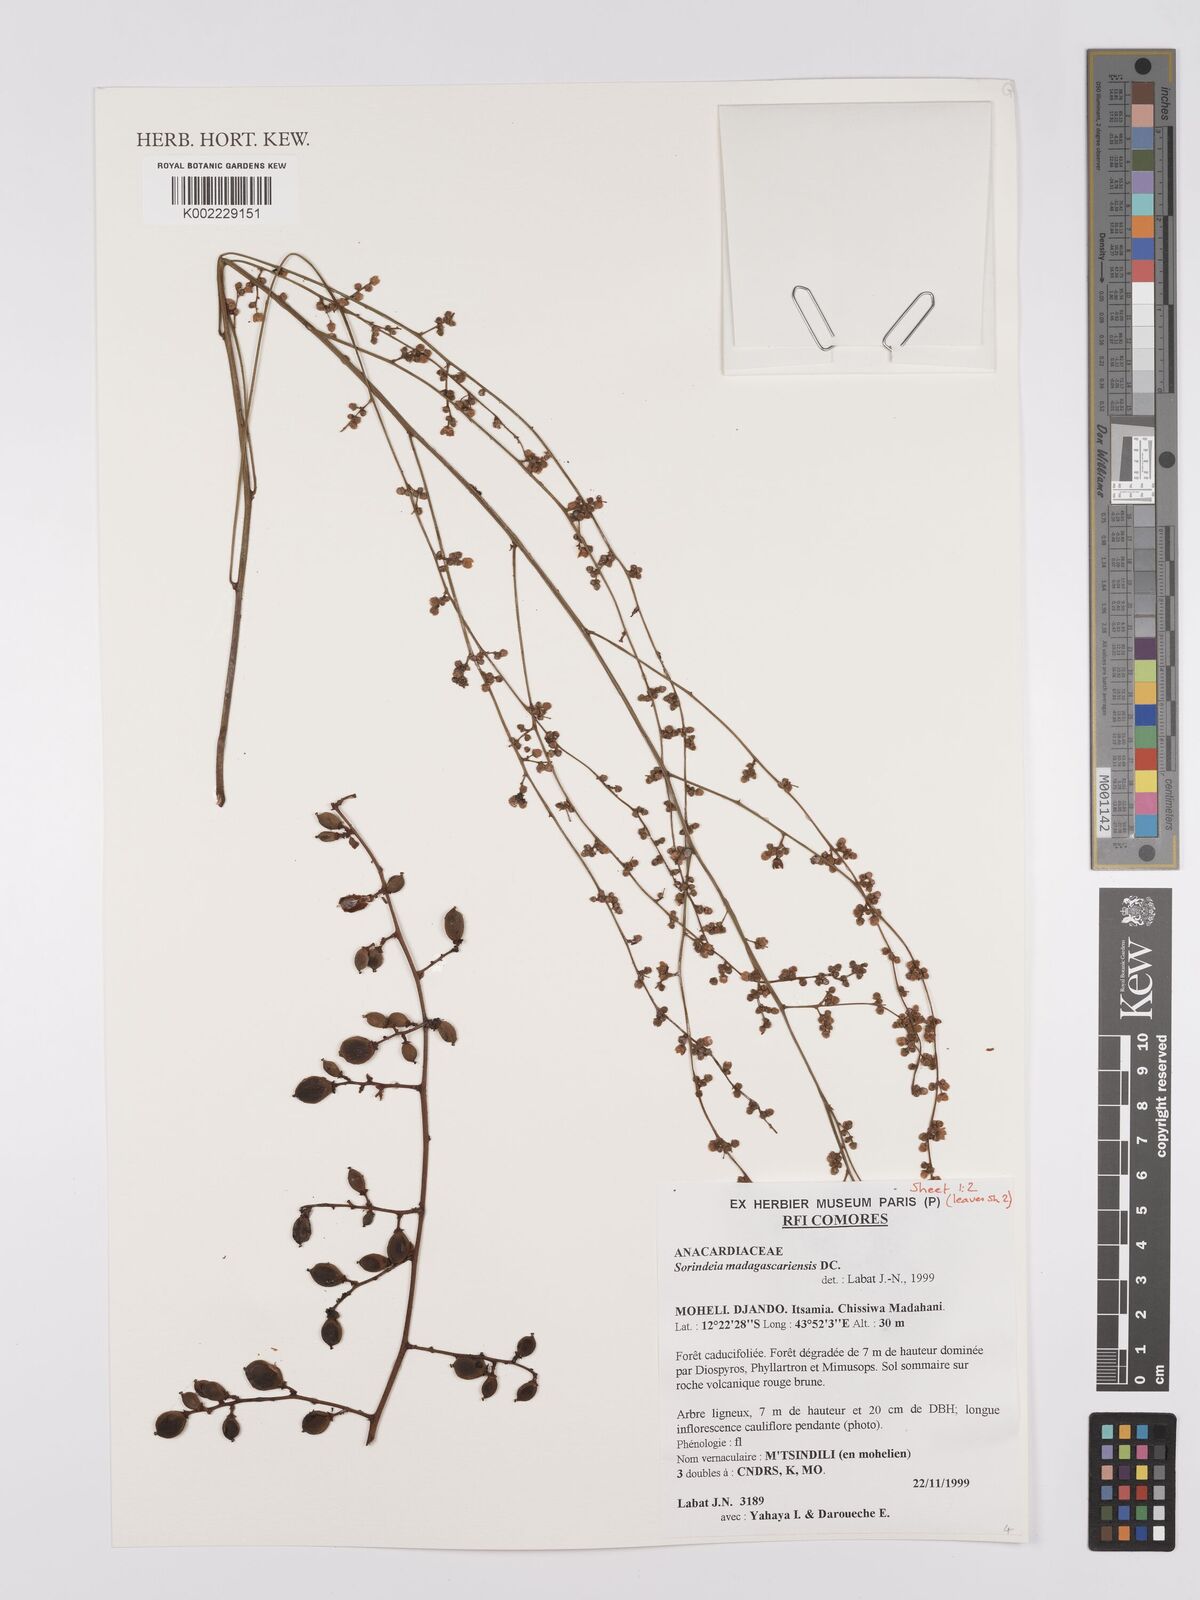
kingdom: Plantae
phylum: Tracheophyta
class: Magnoliopsida
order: Sapindales
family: Anacardiaceae
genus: Sorindeia
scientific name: Sorindeia madagascariensis
